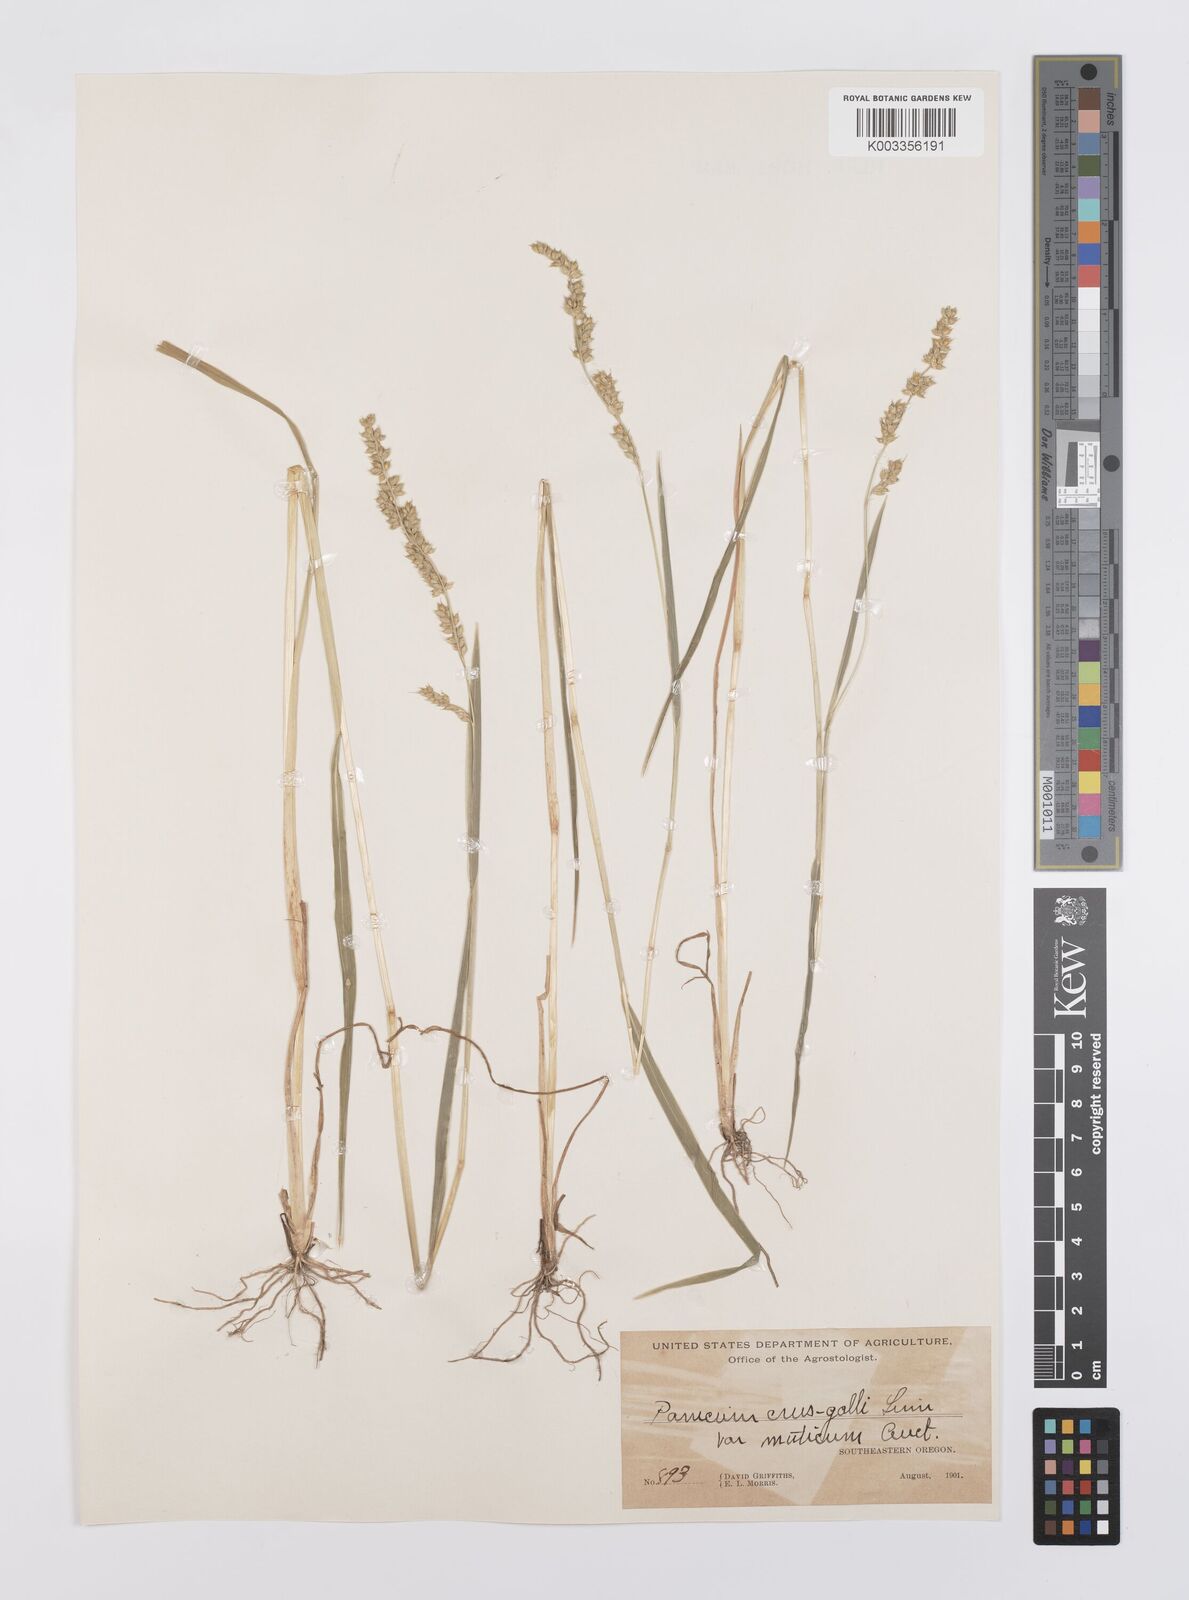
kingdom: Plantae
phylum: Tracheophyta
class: Liliopsida
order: Poales
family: Poaceae
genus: Echinochloa
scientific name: Echinochloa crus-galli
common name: Cockspur
